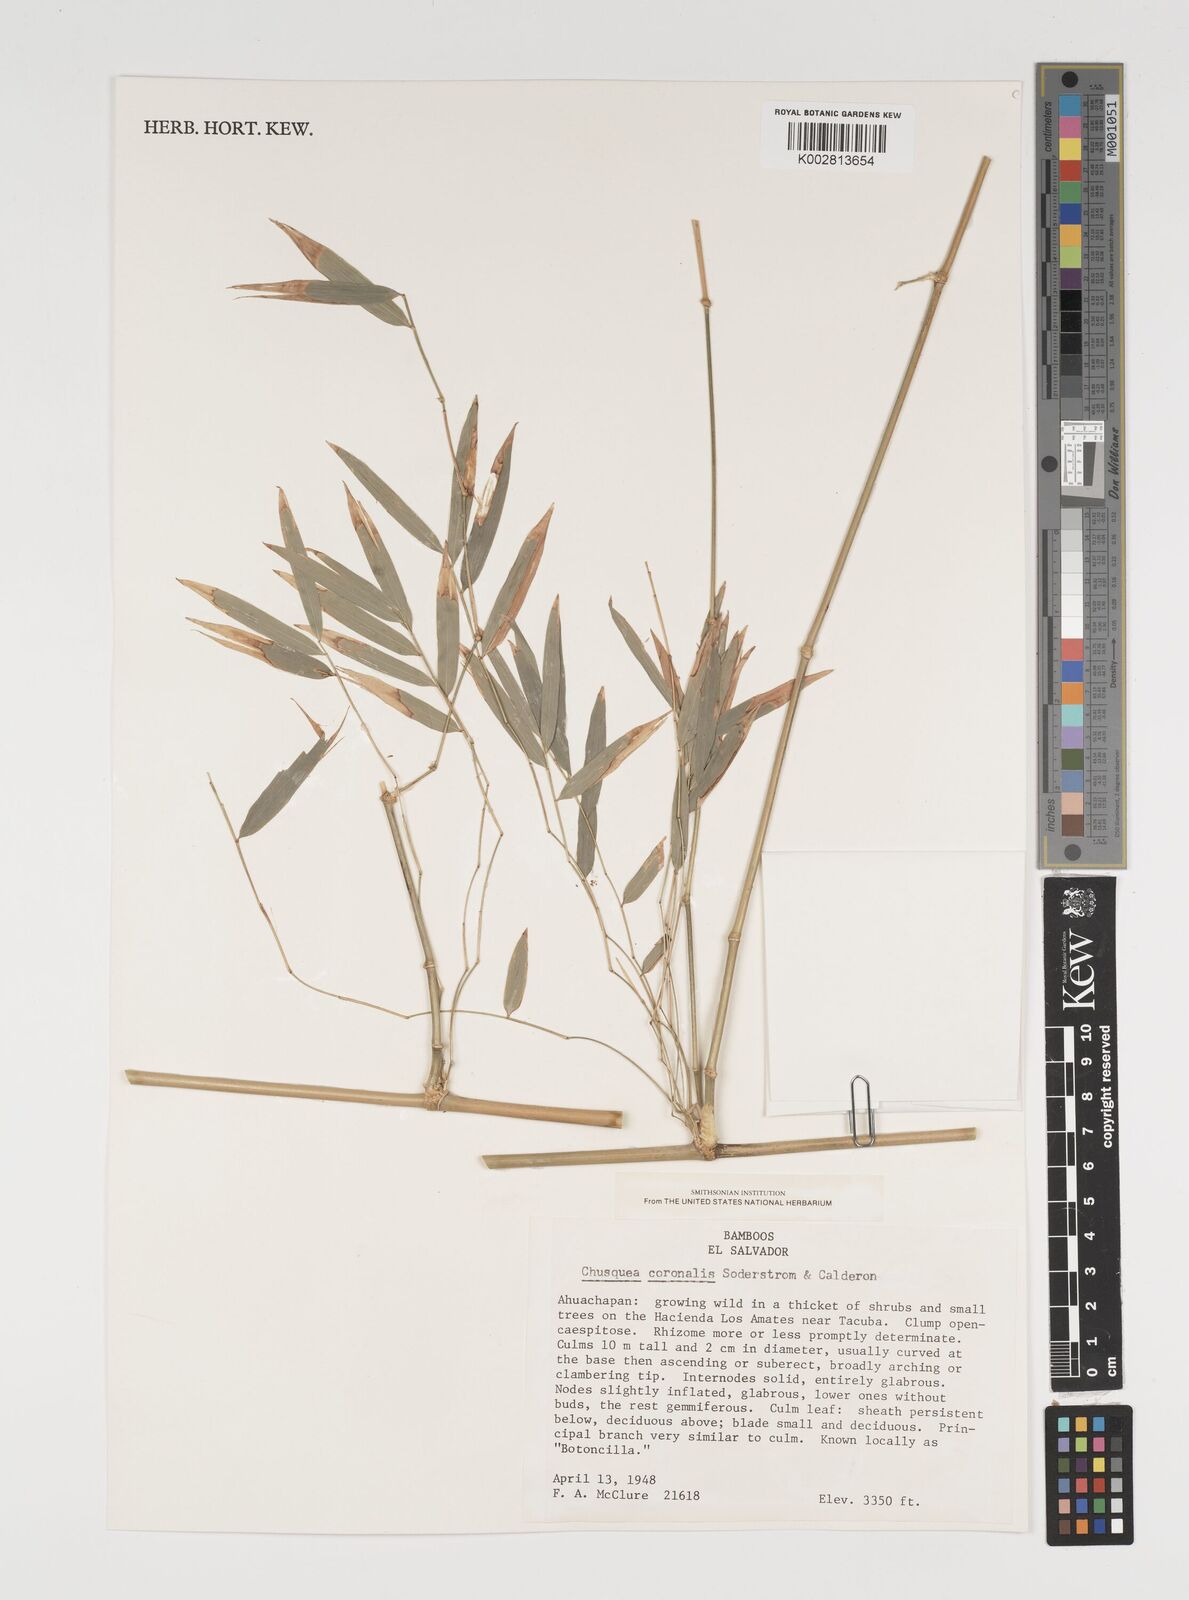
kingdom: Plantae
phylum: Tracheophyta
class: Liliopsida
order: Poales
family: Poaceae
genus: Chusquea
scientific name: Chusquea coronalis
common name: Machris bamboo
